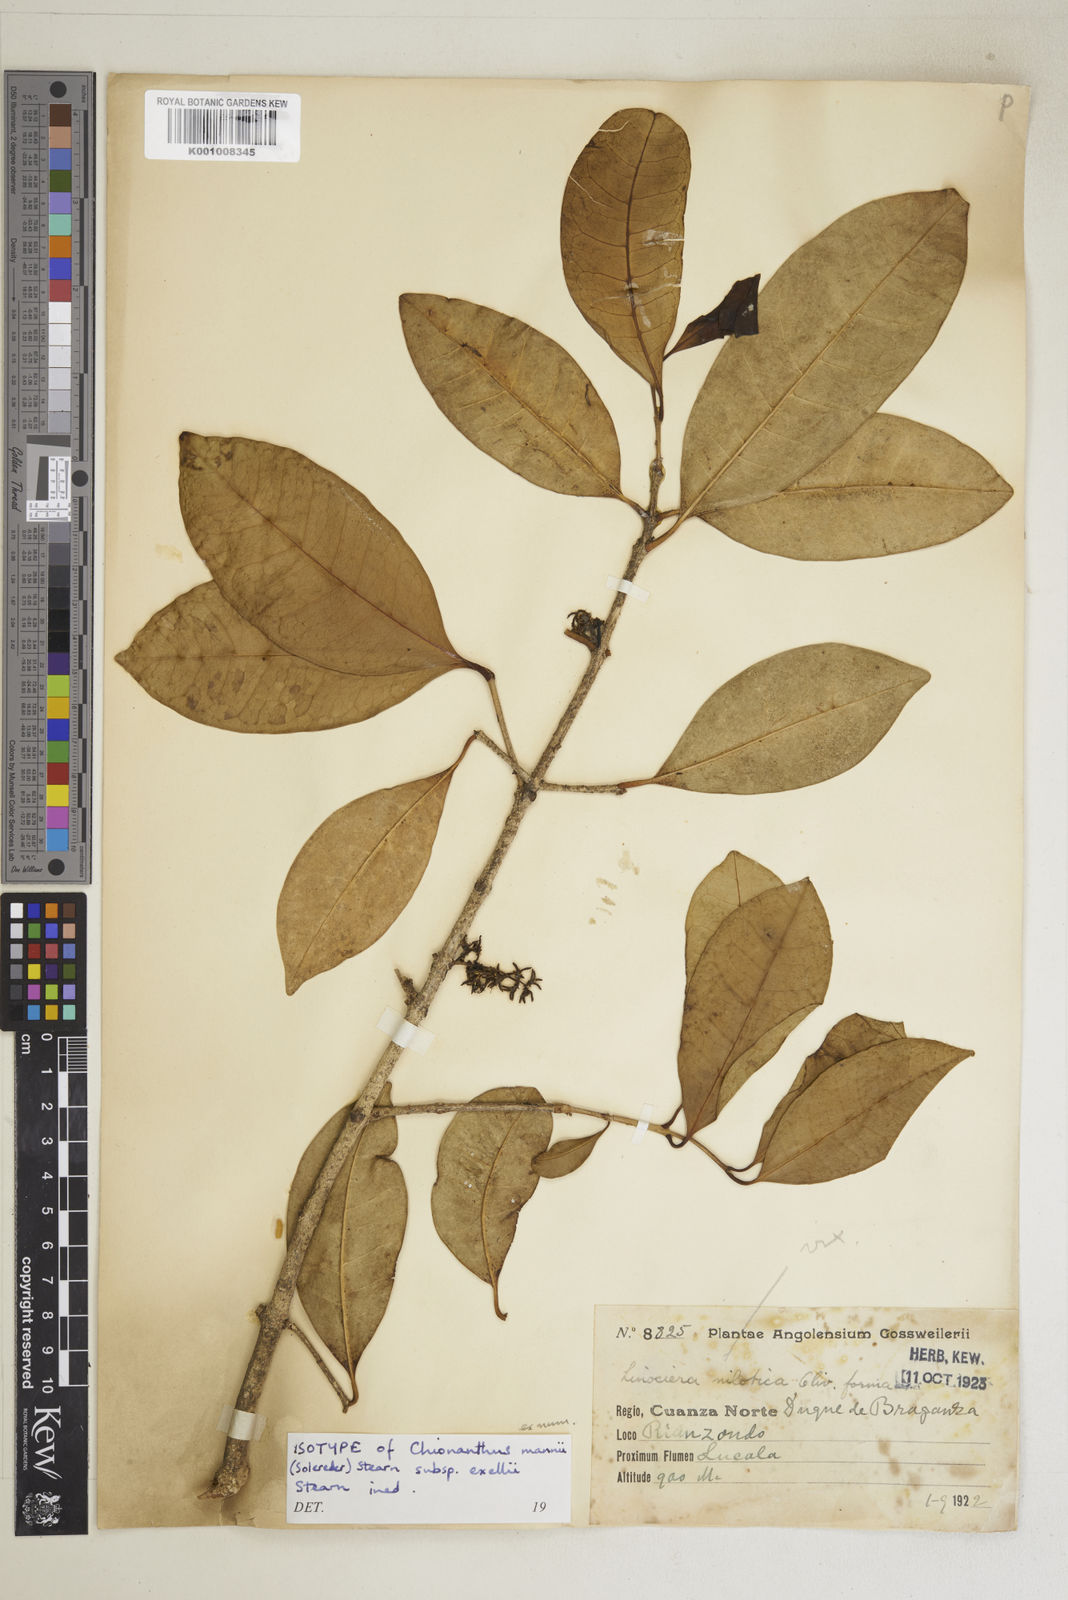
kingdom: Plantae
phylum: Tracheophyta
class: Magnoliopsida
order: Lamiales
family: Oleaceae
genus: Noronhia
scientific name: Noronhia nilotica
